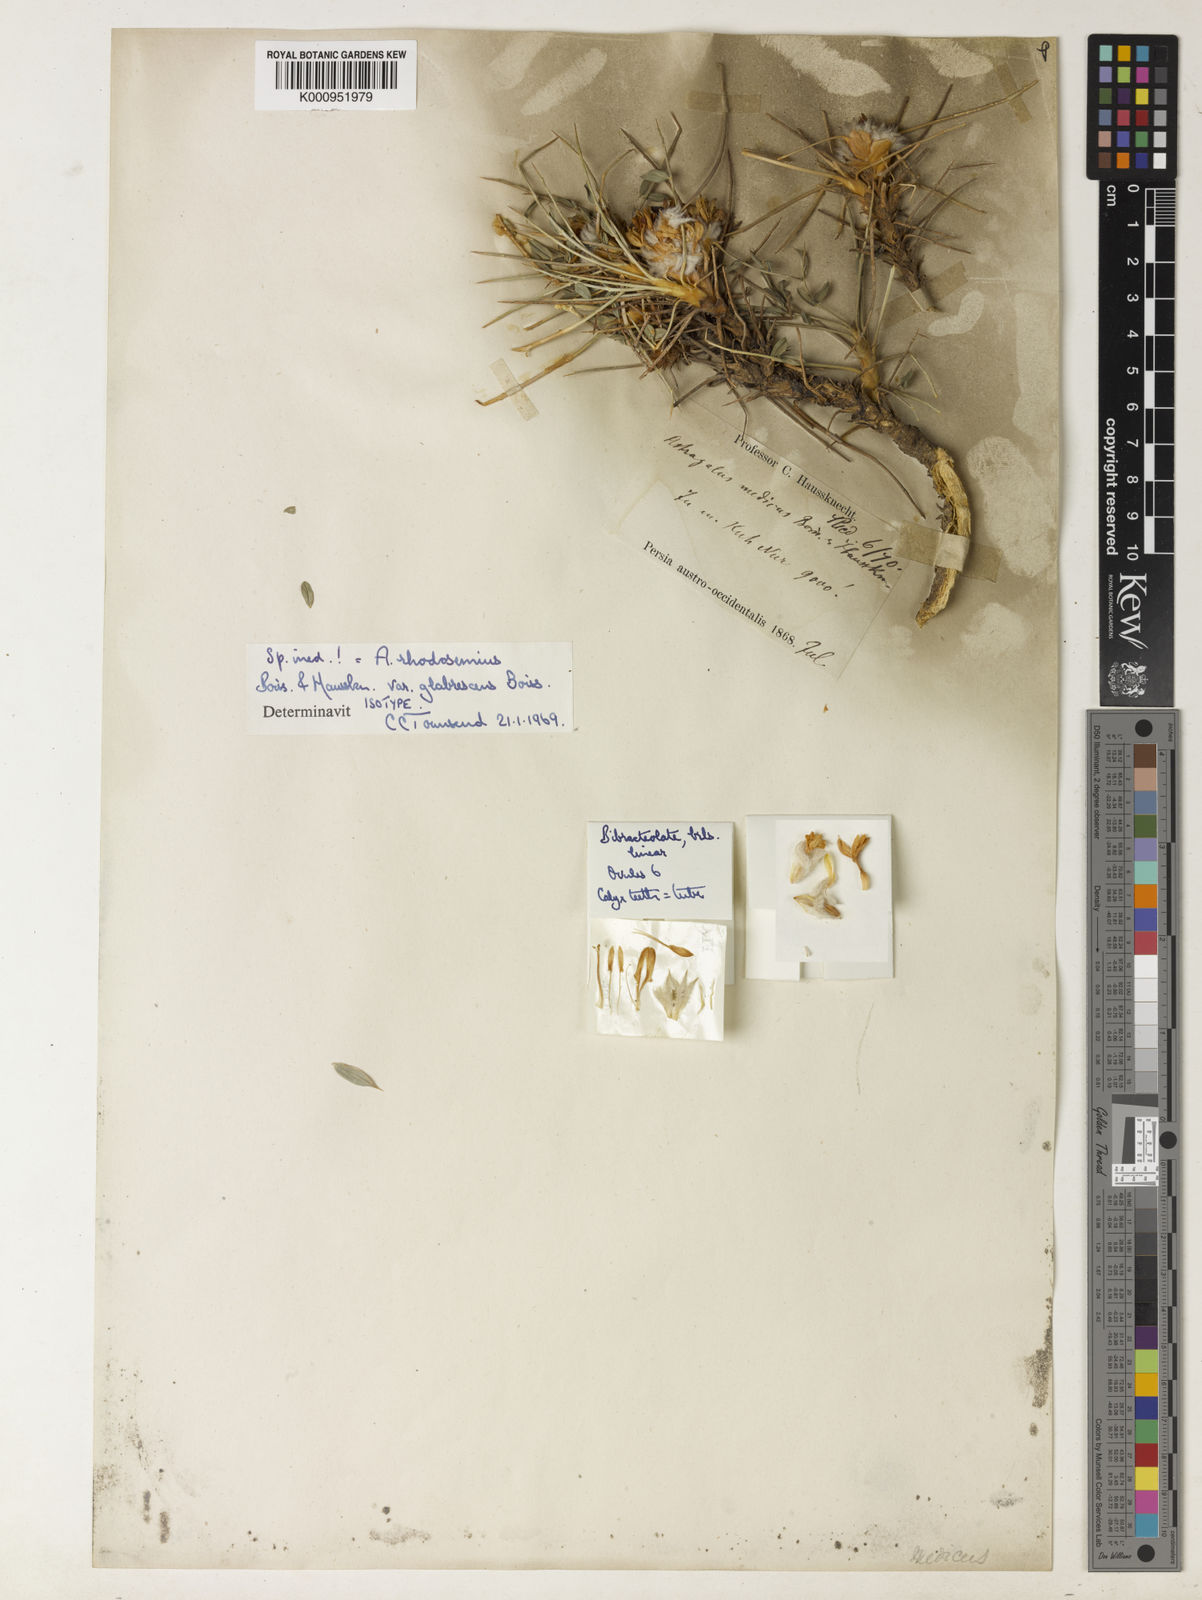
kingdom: Plantae
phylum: Tracheophyta
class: Magnoliopsida
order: Fabales
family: Fabaceae
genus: Astragalus
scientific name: Astragalus rhodosemius
